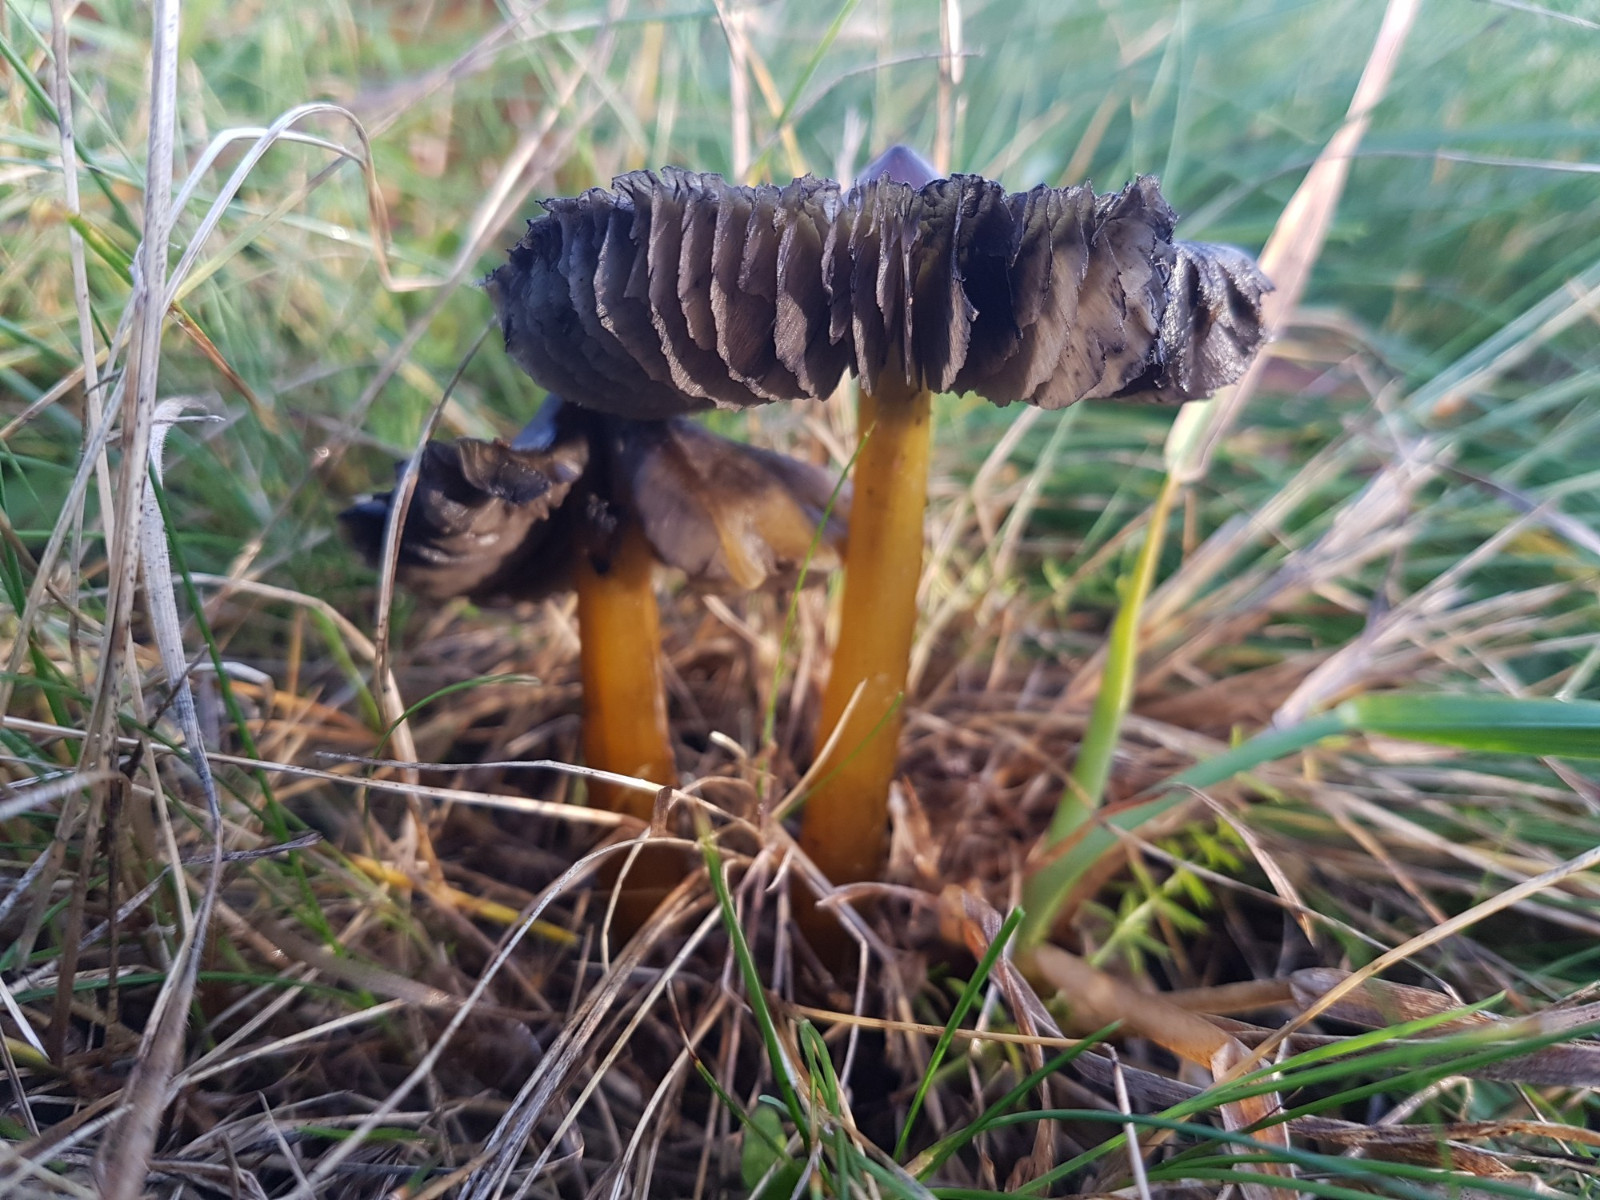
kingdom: Fungi
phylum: Basidiomycota
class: Agaricomycetes
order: Agaricales
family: Hygrophoraceae
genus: Hygrocybe
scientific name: Hygrocybe conica
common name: kegle-vokshat
